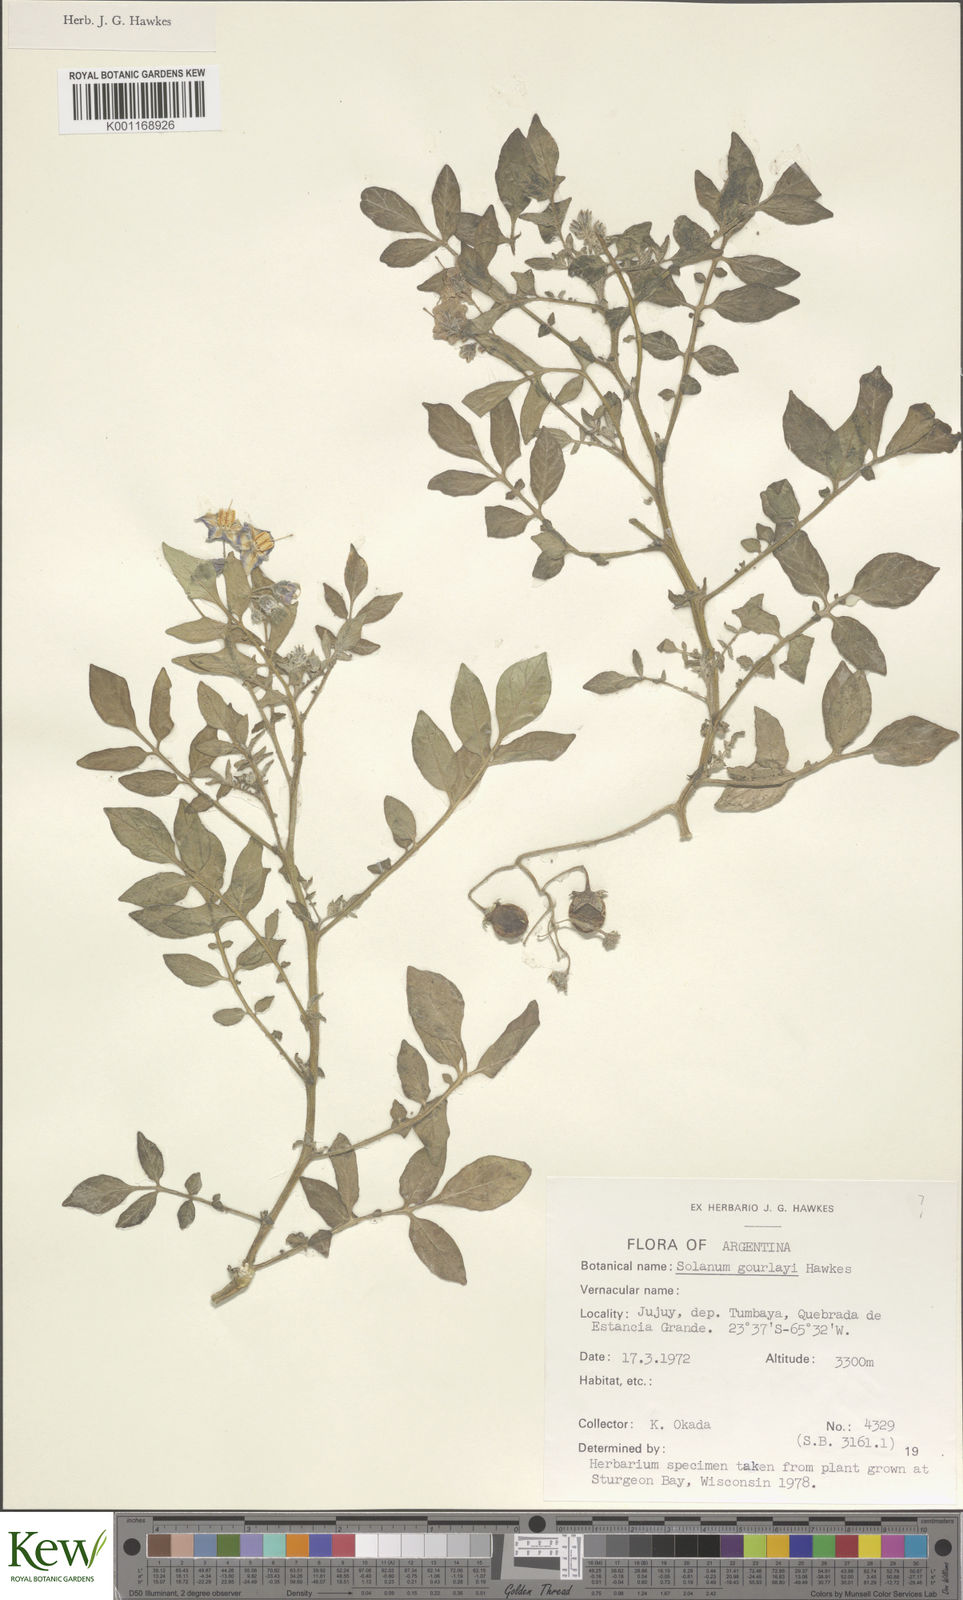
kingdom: Plantae
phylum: Tracheophyta
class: Magnoliopsida
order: Solanales
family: Solanaceae
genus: Solanum
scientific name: Solanum brevicaule
